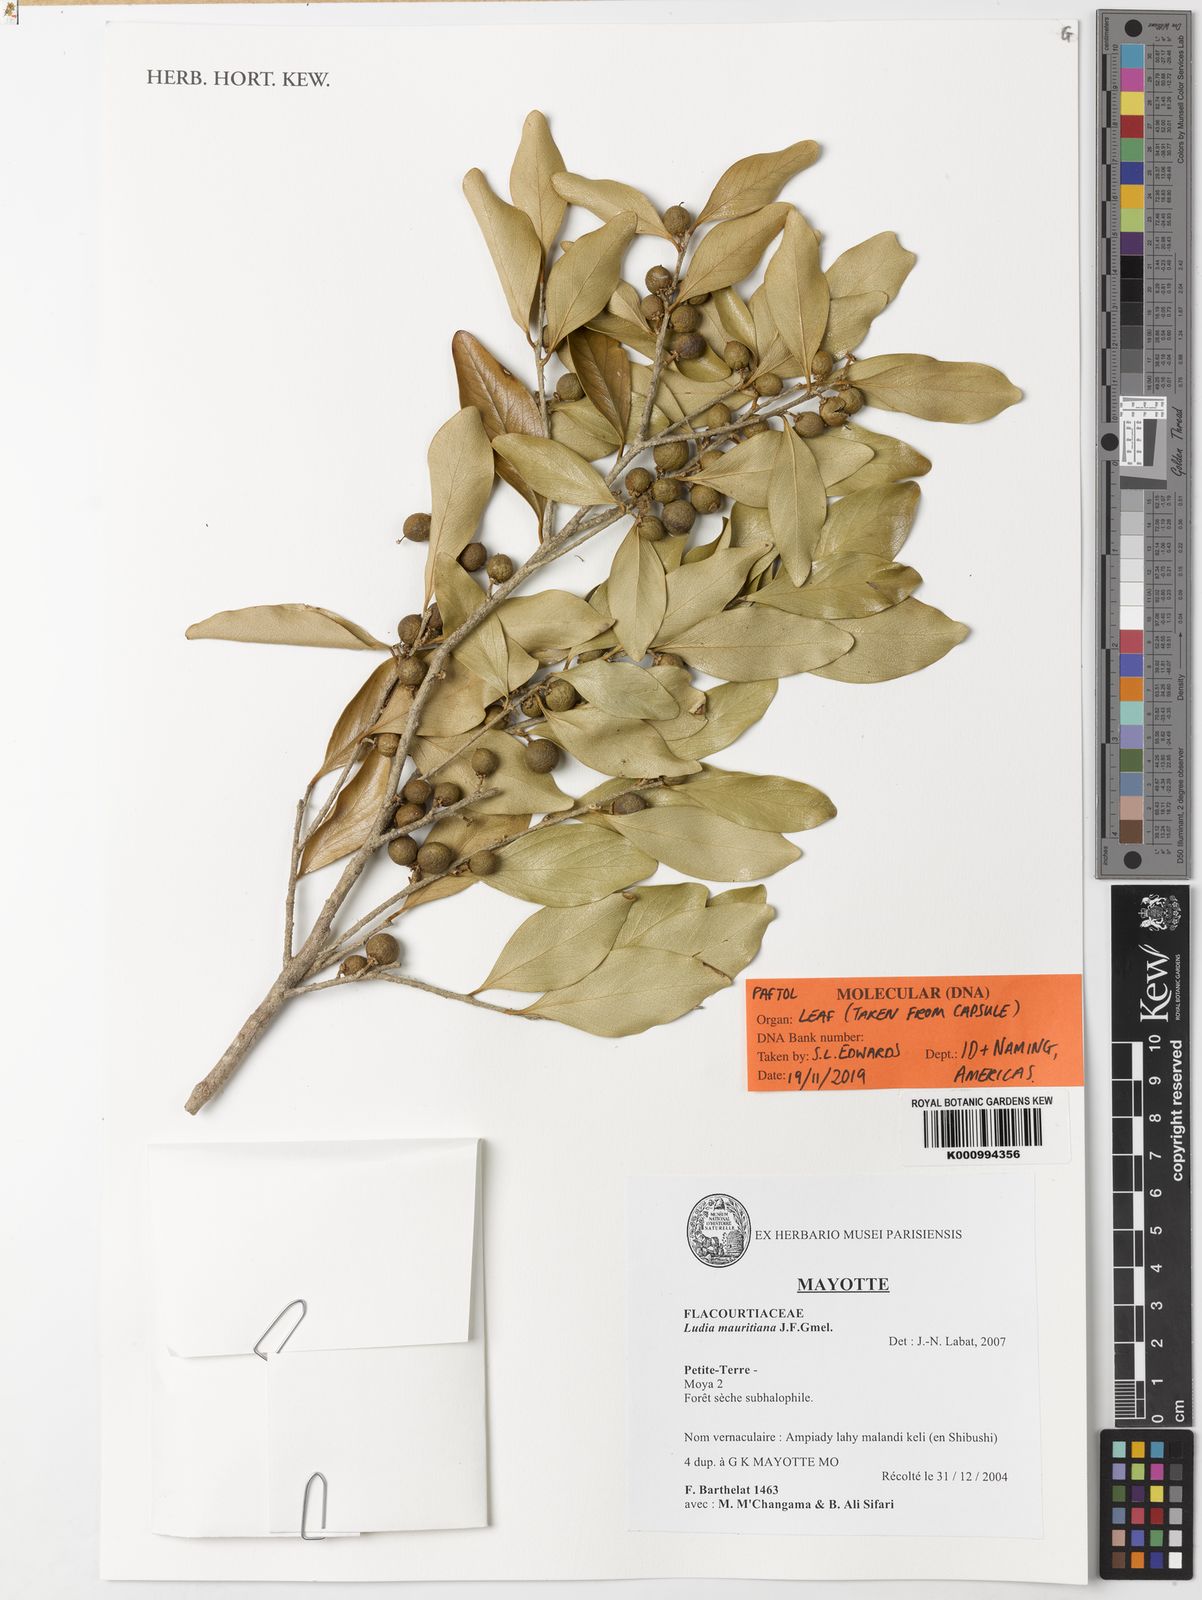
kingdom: Plantae
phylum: Tracheophyta
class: Magnoliopsida
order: Lamiales
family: Bignoniaceae
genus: Lundia
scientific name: Lundia
